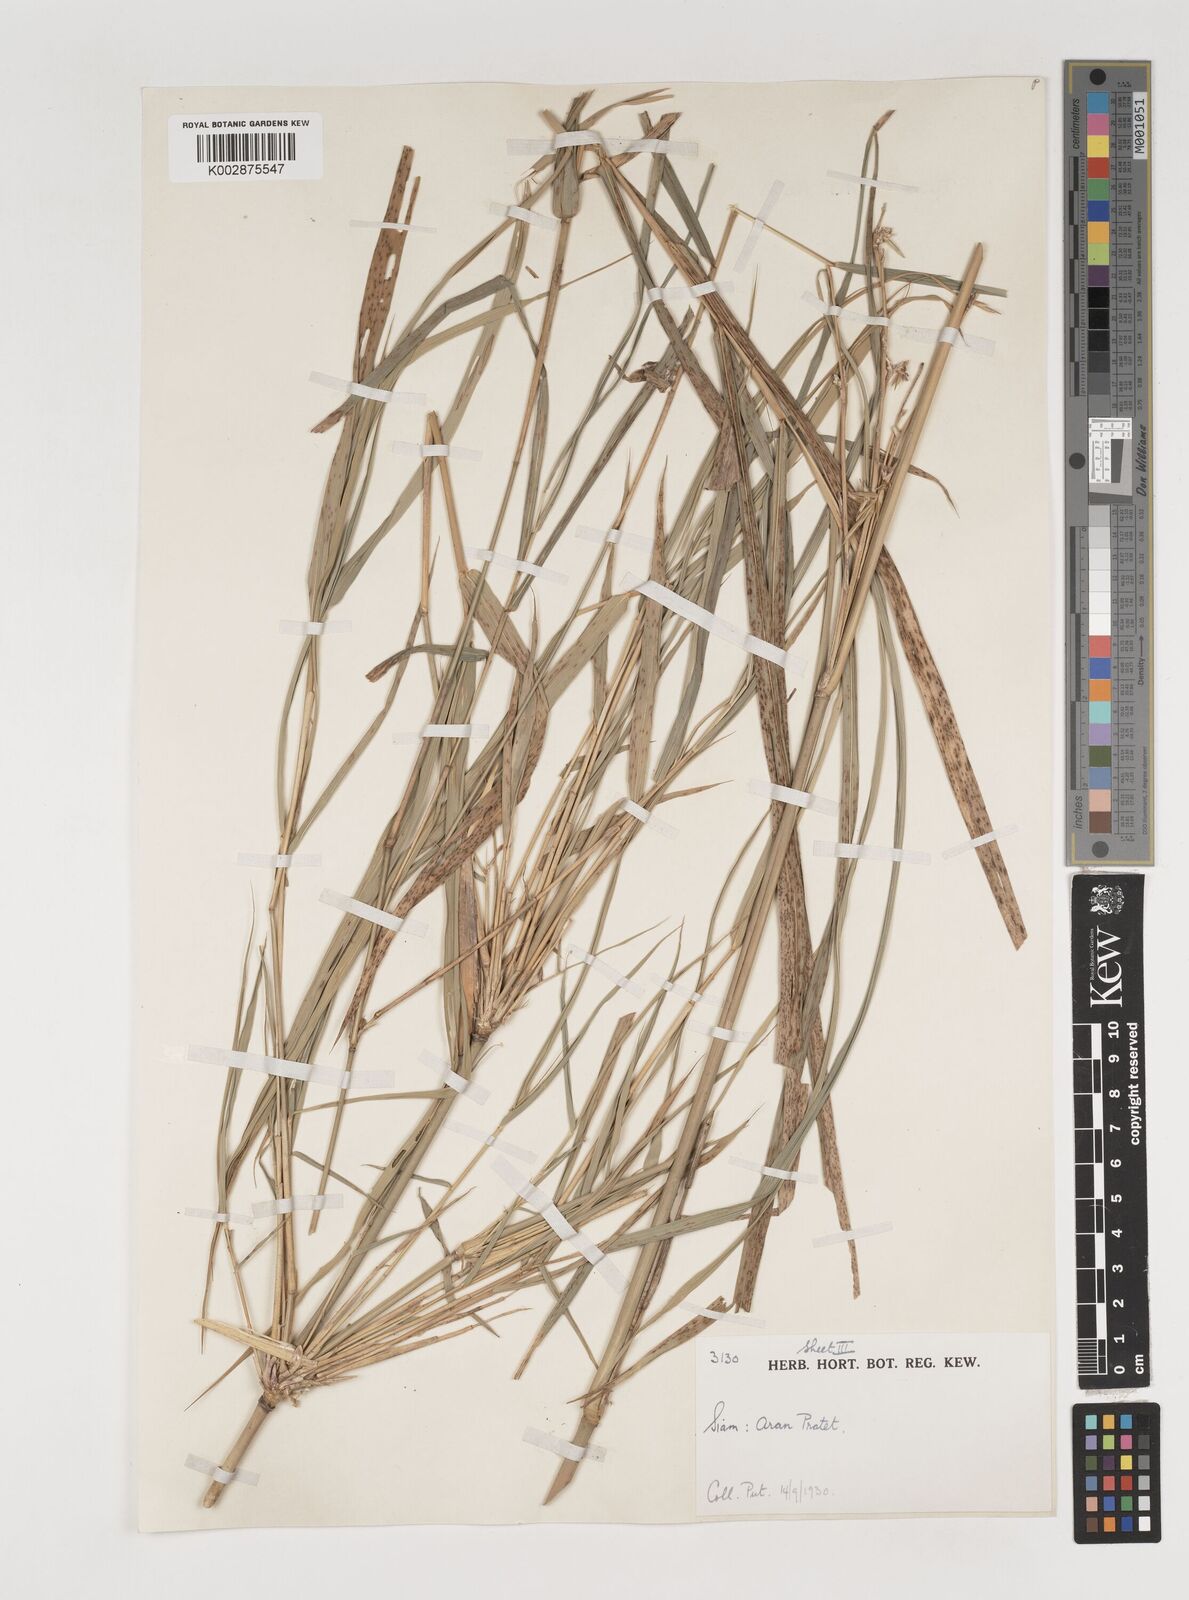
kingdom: Plantae
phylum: Tracheophyta
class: Liliopsida
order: Poales
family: Poaceae
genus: Vietnamosasa
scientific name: Vietnamosasa pusilla
